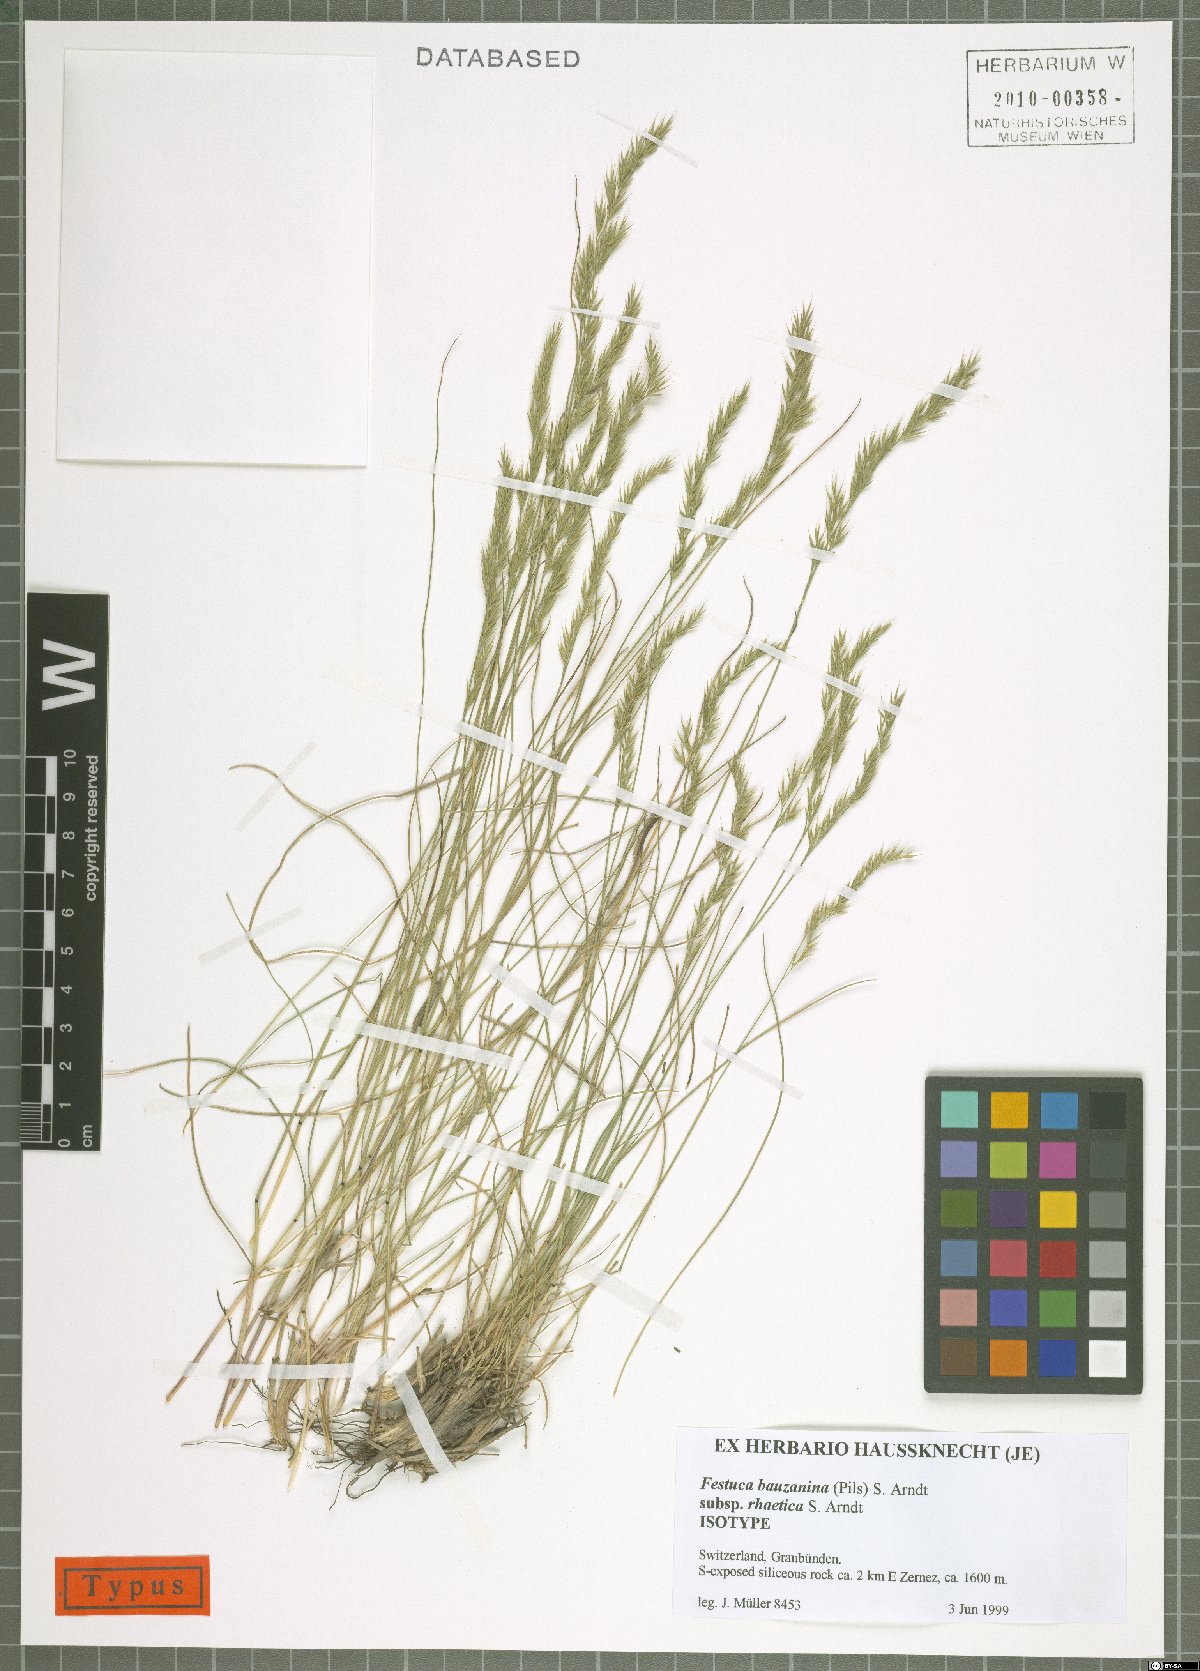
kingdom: Plantae
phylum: Tracheophyta
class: Liliopsida
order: Poales
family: Poaceae
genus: Festuca
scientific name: Festuca stricta
